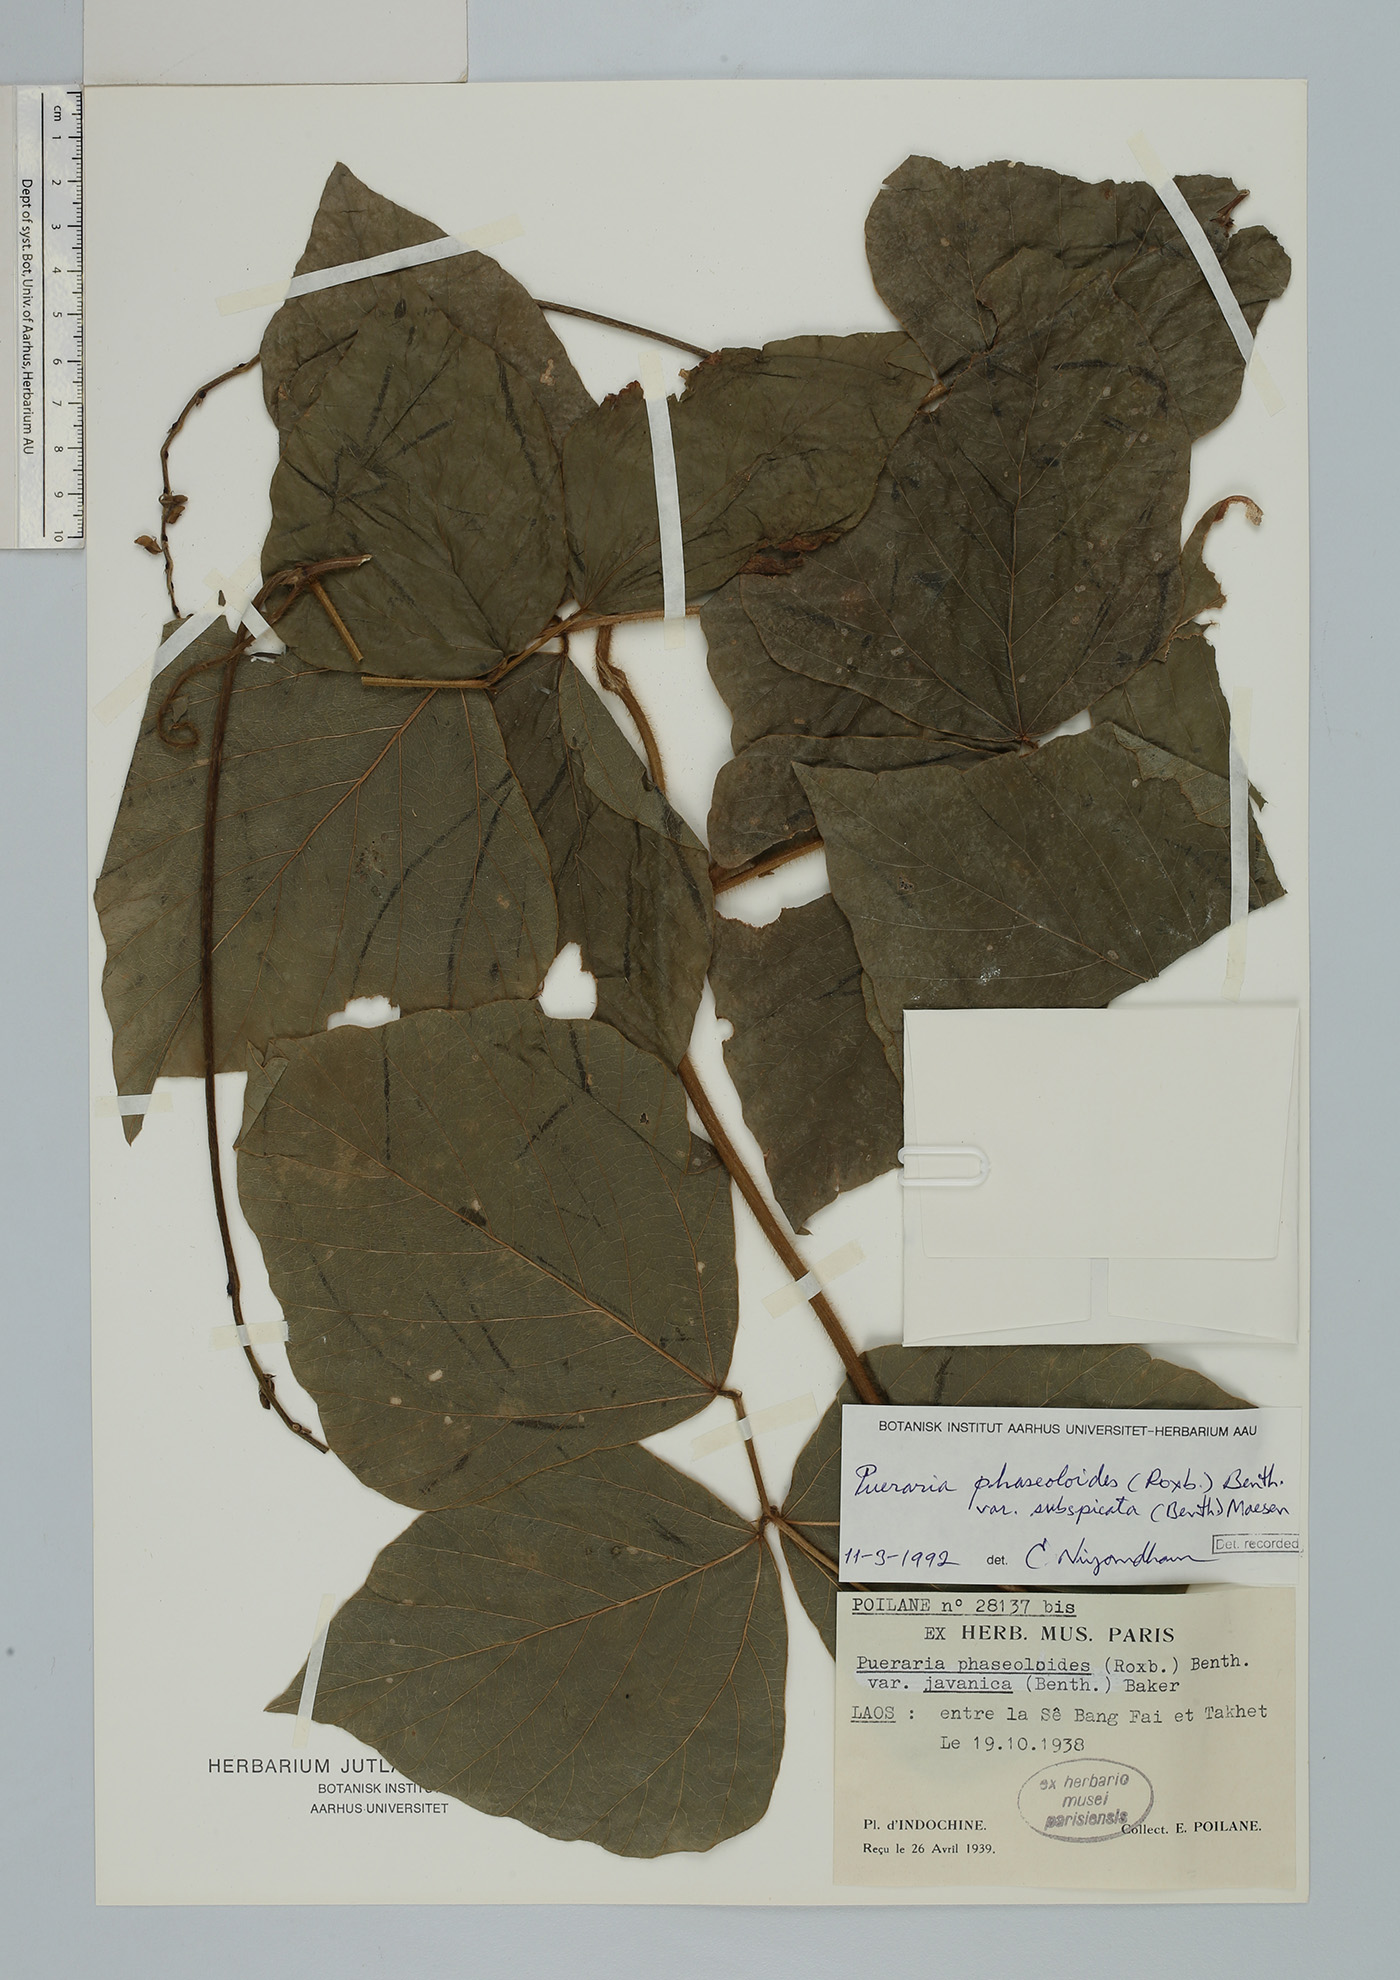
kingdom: Plantae
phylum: Tracheophyta
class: Magnoliopsida
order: Fabales
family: Fabaceae
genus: Neustanthus
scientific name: Neustanthus phaseoloides
